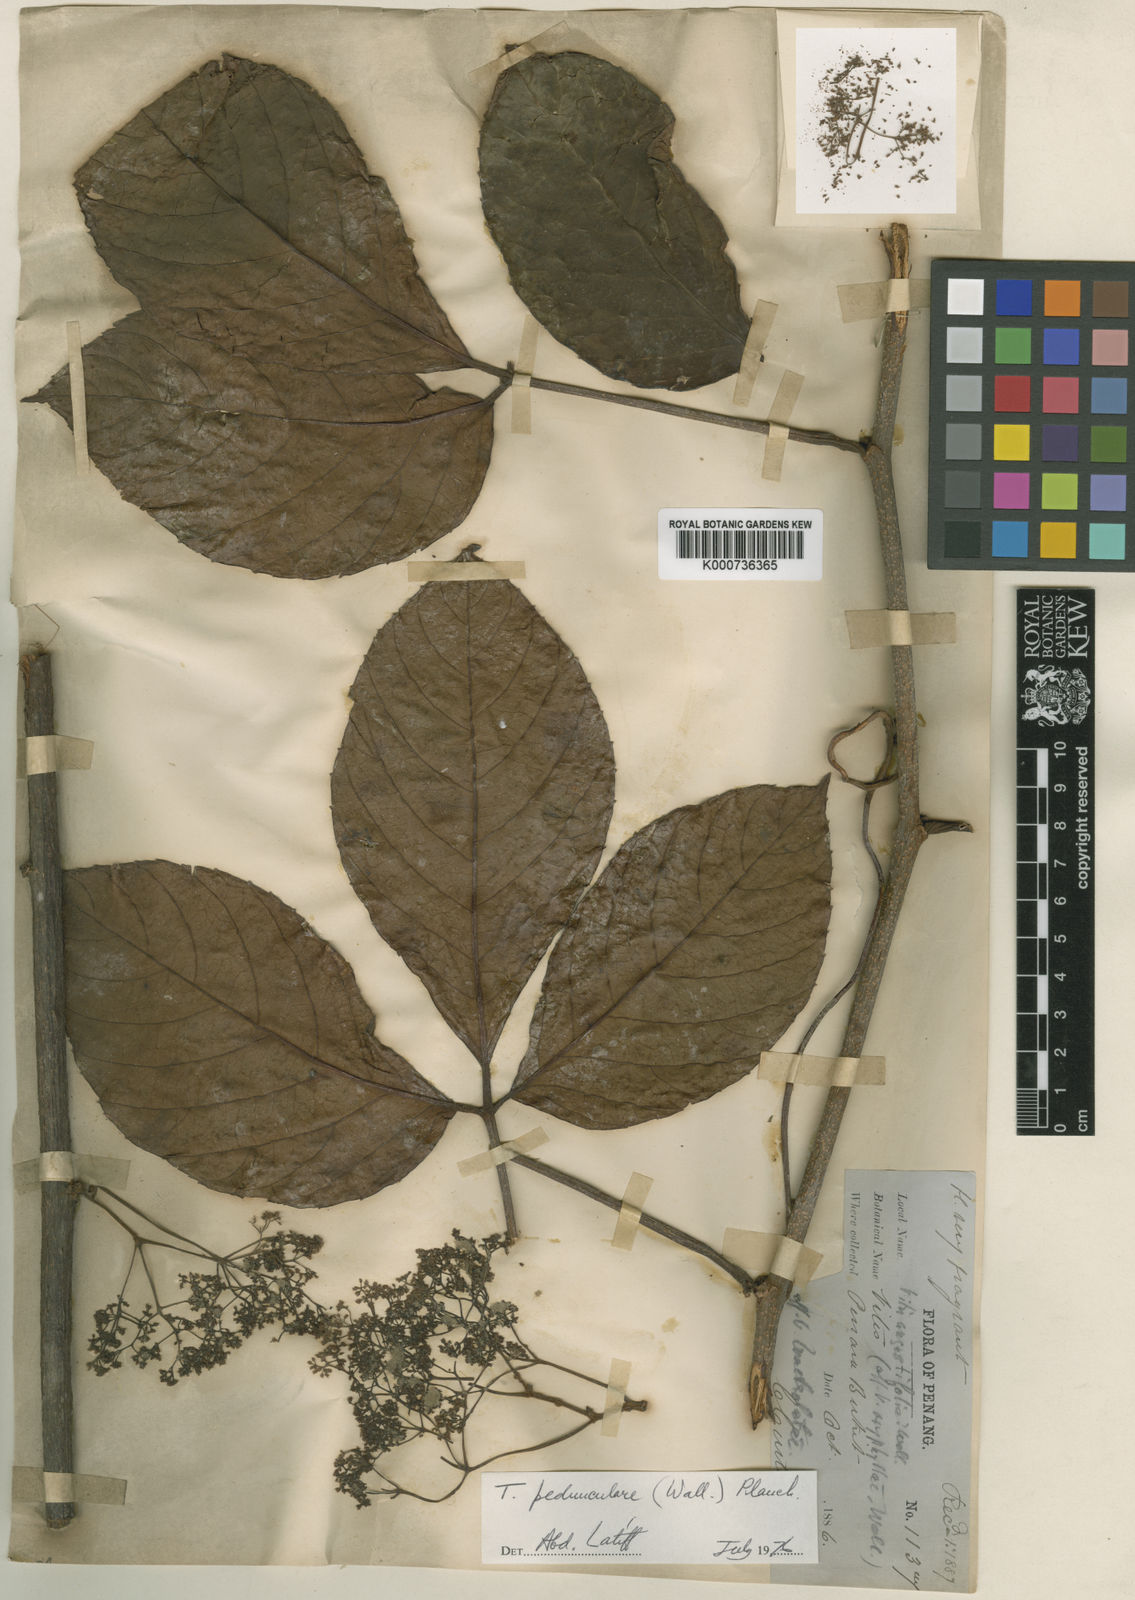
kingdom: Plantae
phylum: Tracheophyta
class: Magnoliopsida
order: Vitales
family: Vitaceae
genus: Tetrastigma
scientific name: Tetrastigma pedunculare
